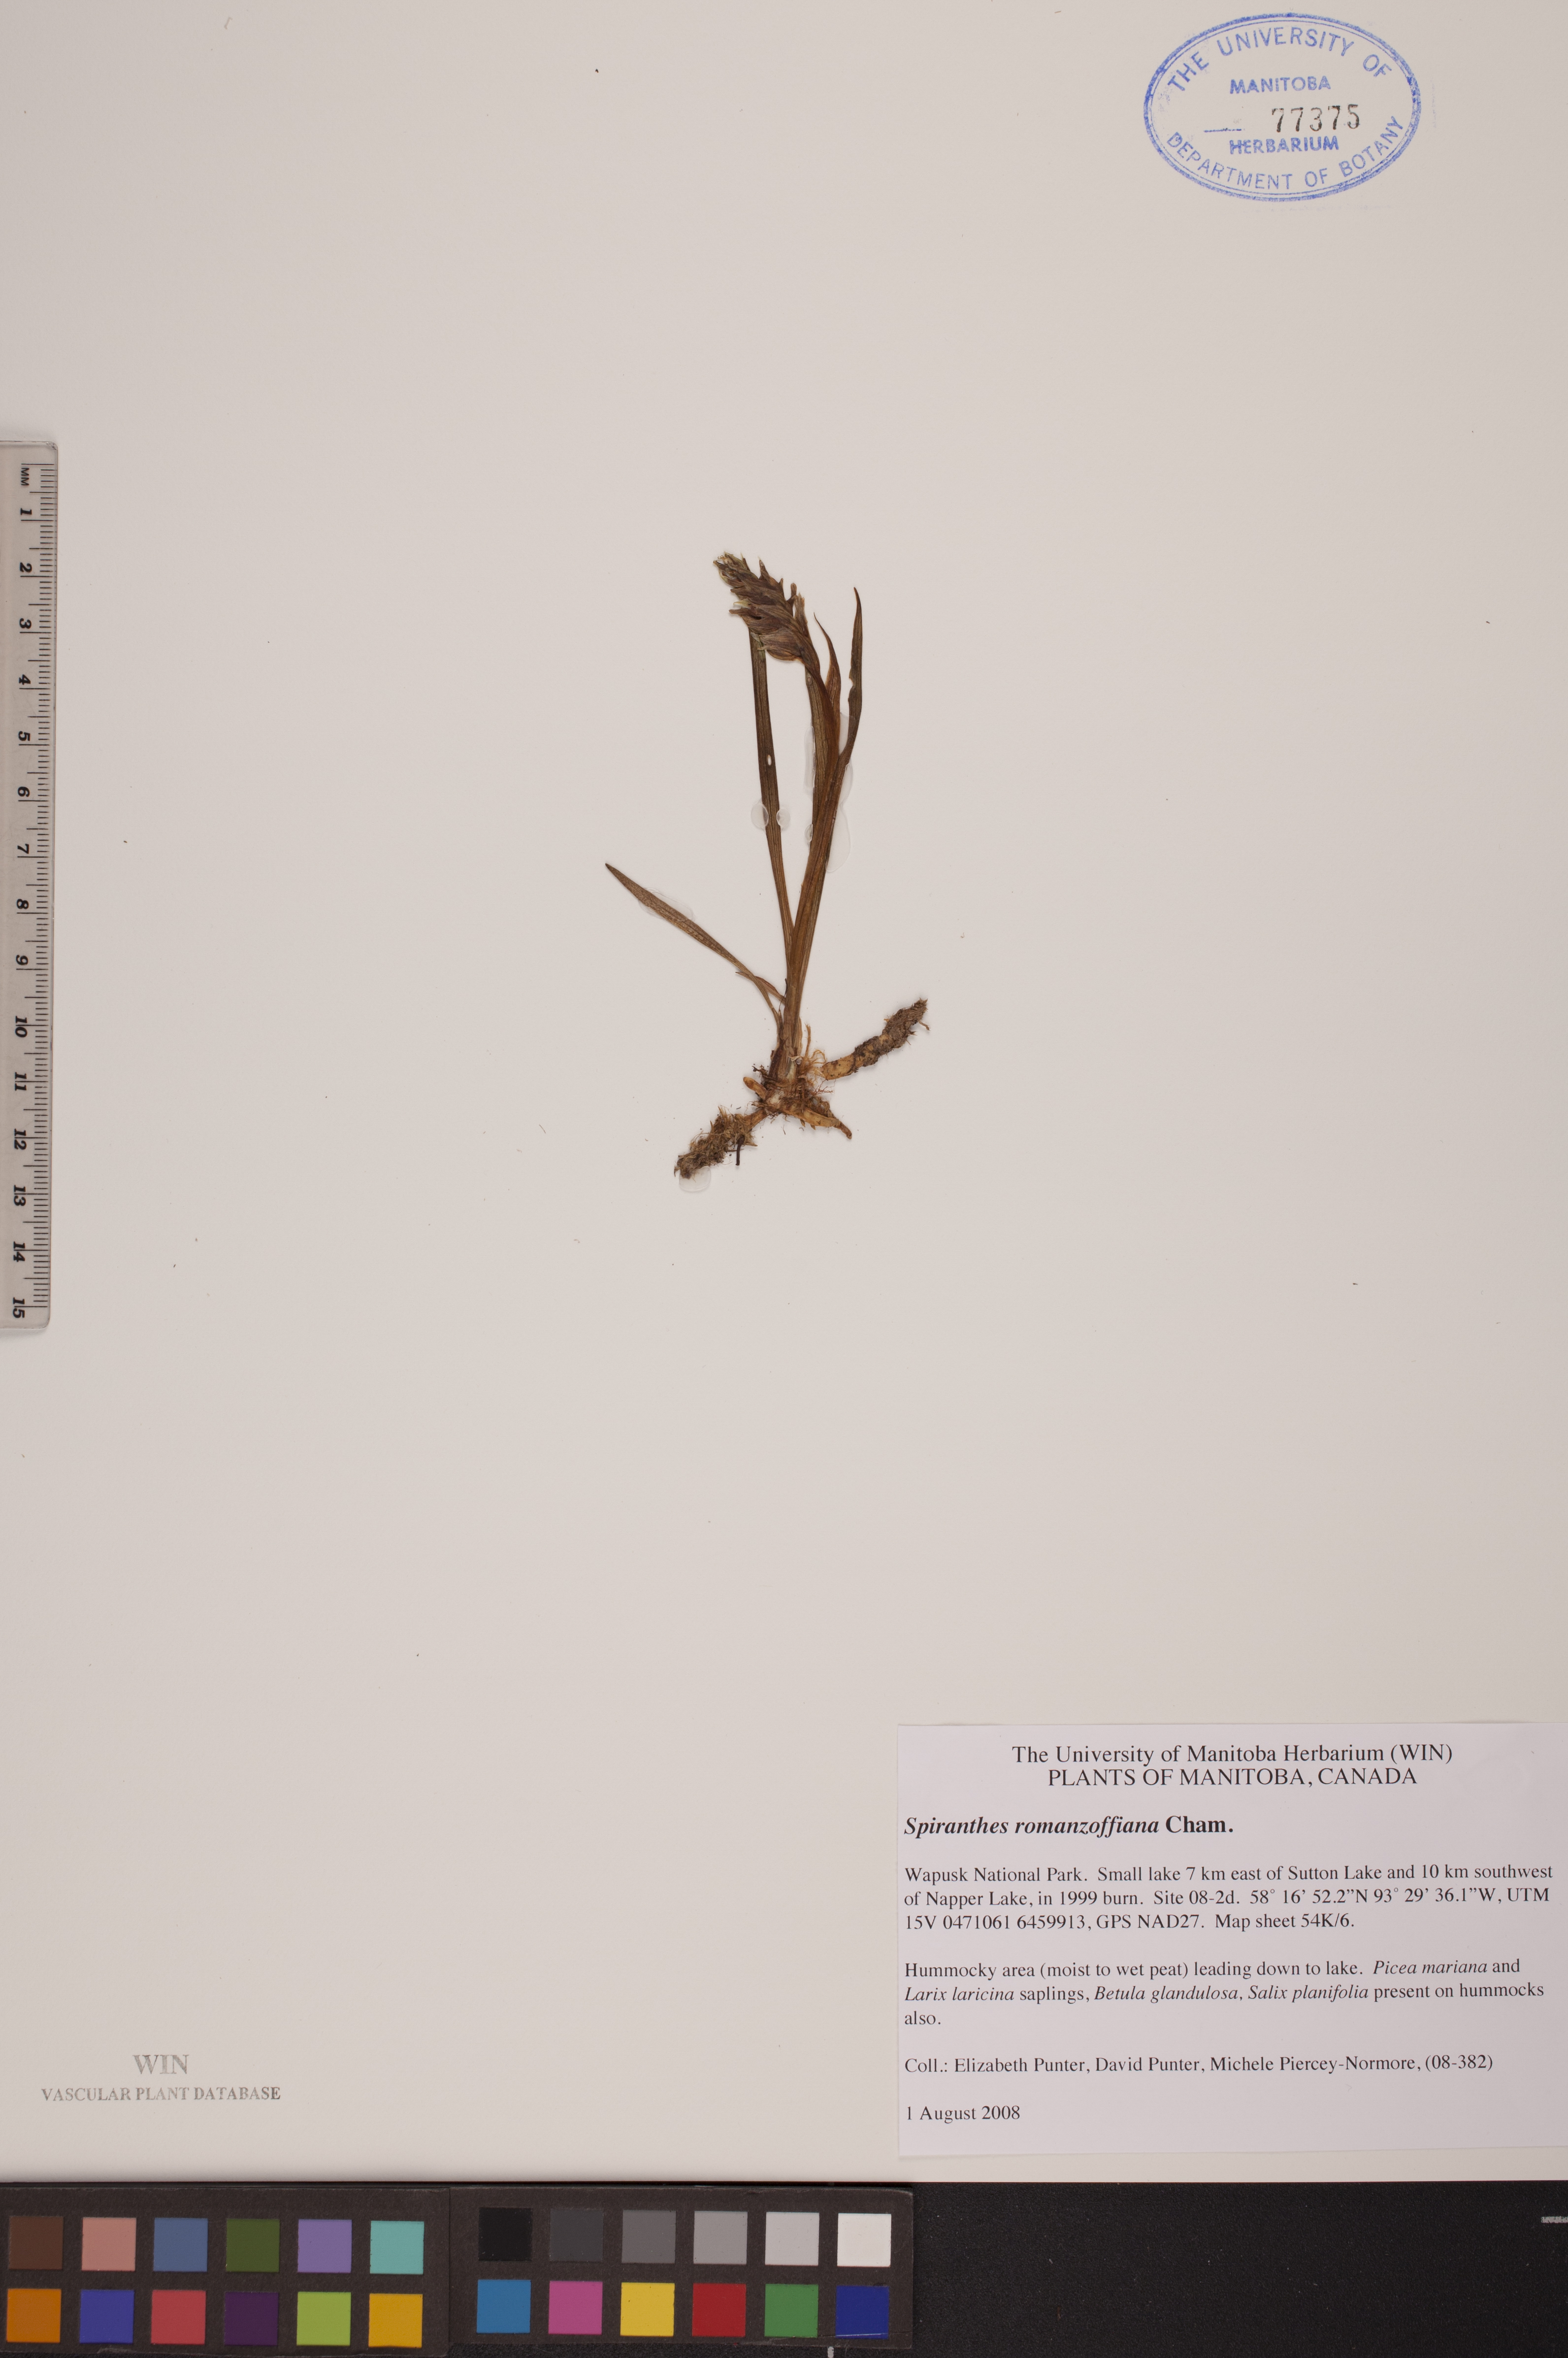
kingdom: Plantae
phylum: Tracheophyta
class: Liliopsida
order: Asparagales
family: Orchidaceae
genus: Spiranthes
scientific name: Spiranthes romanzoffiana
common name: Irish lady's-tresses
